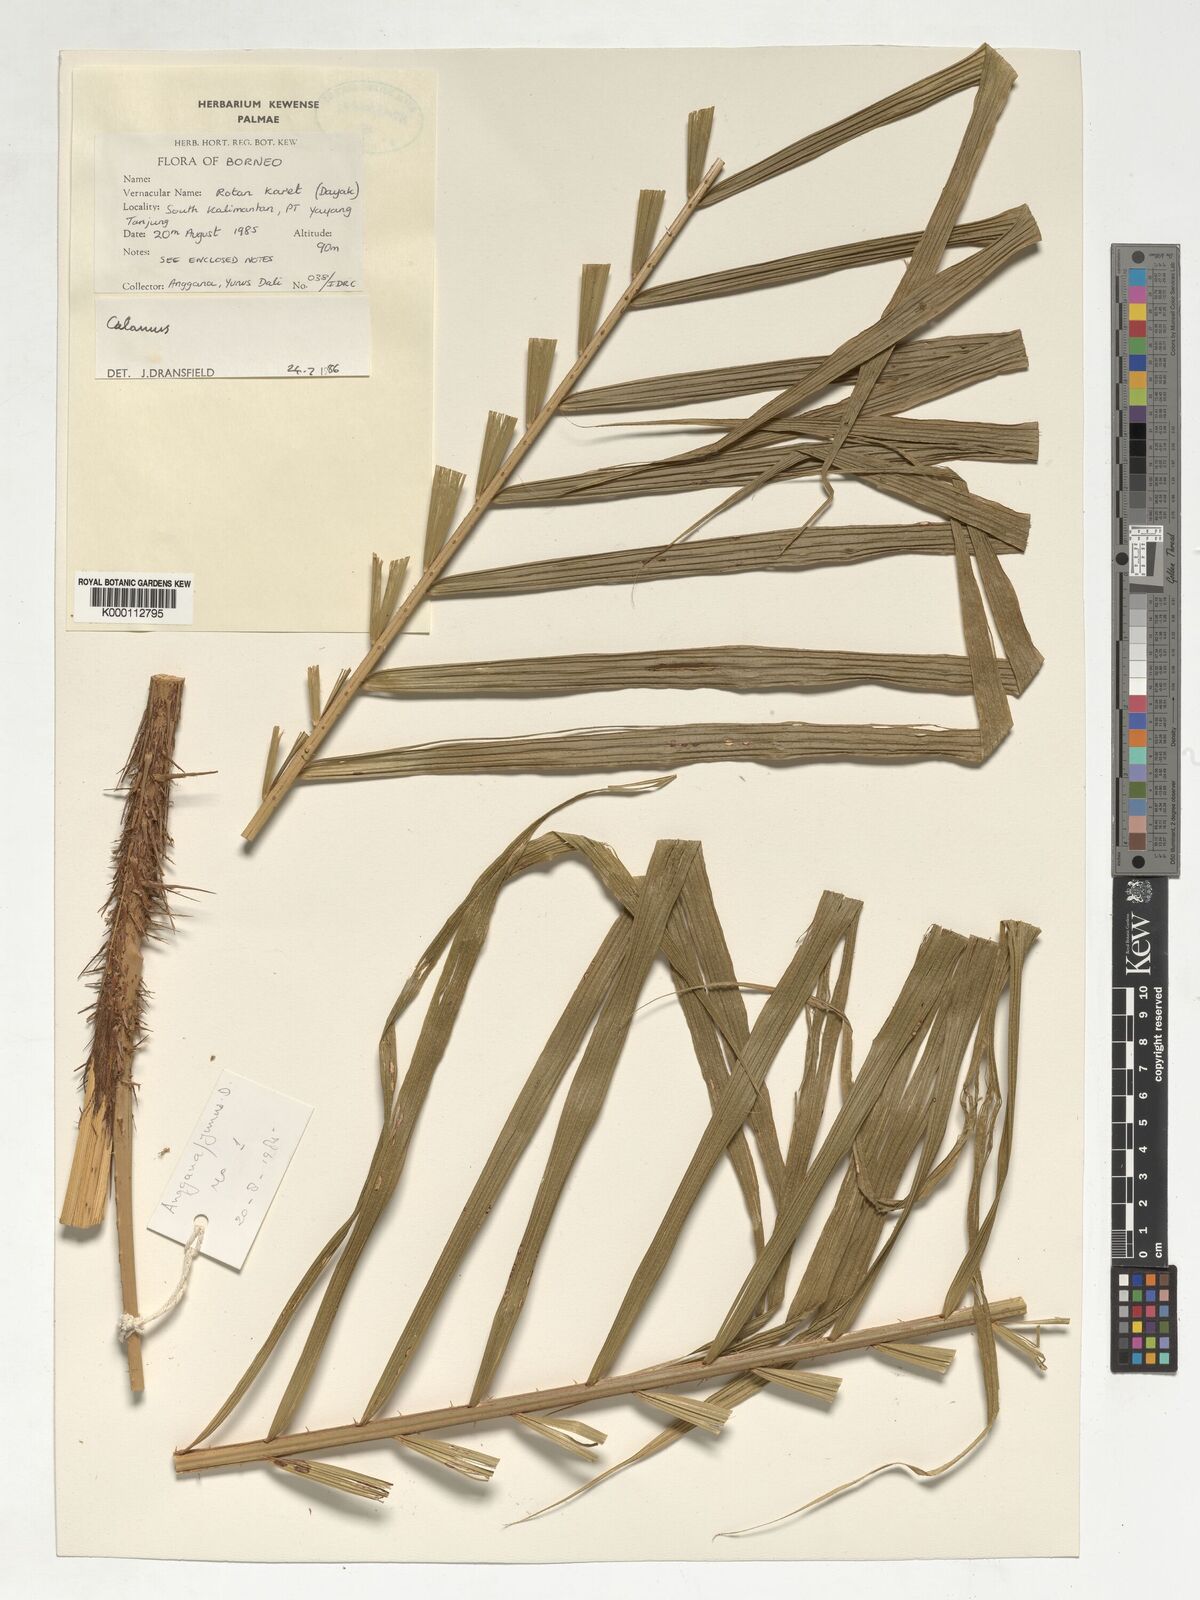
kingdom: Plantae
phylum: Tracheophyta
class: Liliopsida
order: Arecales
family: Arecaceae
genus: Calamus
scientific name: Calamus pogonacanthus
